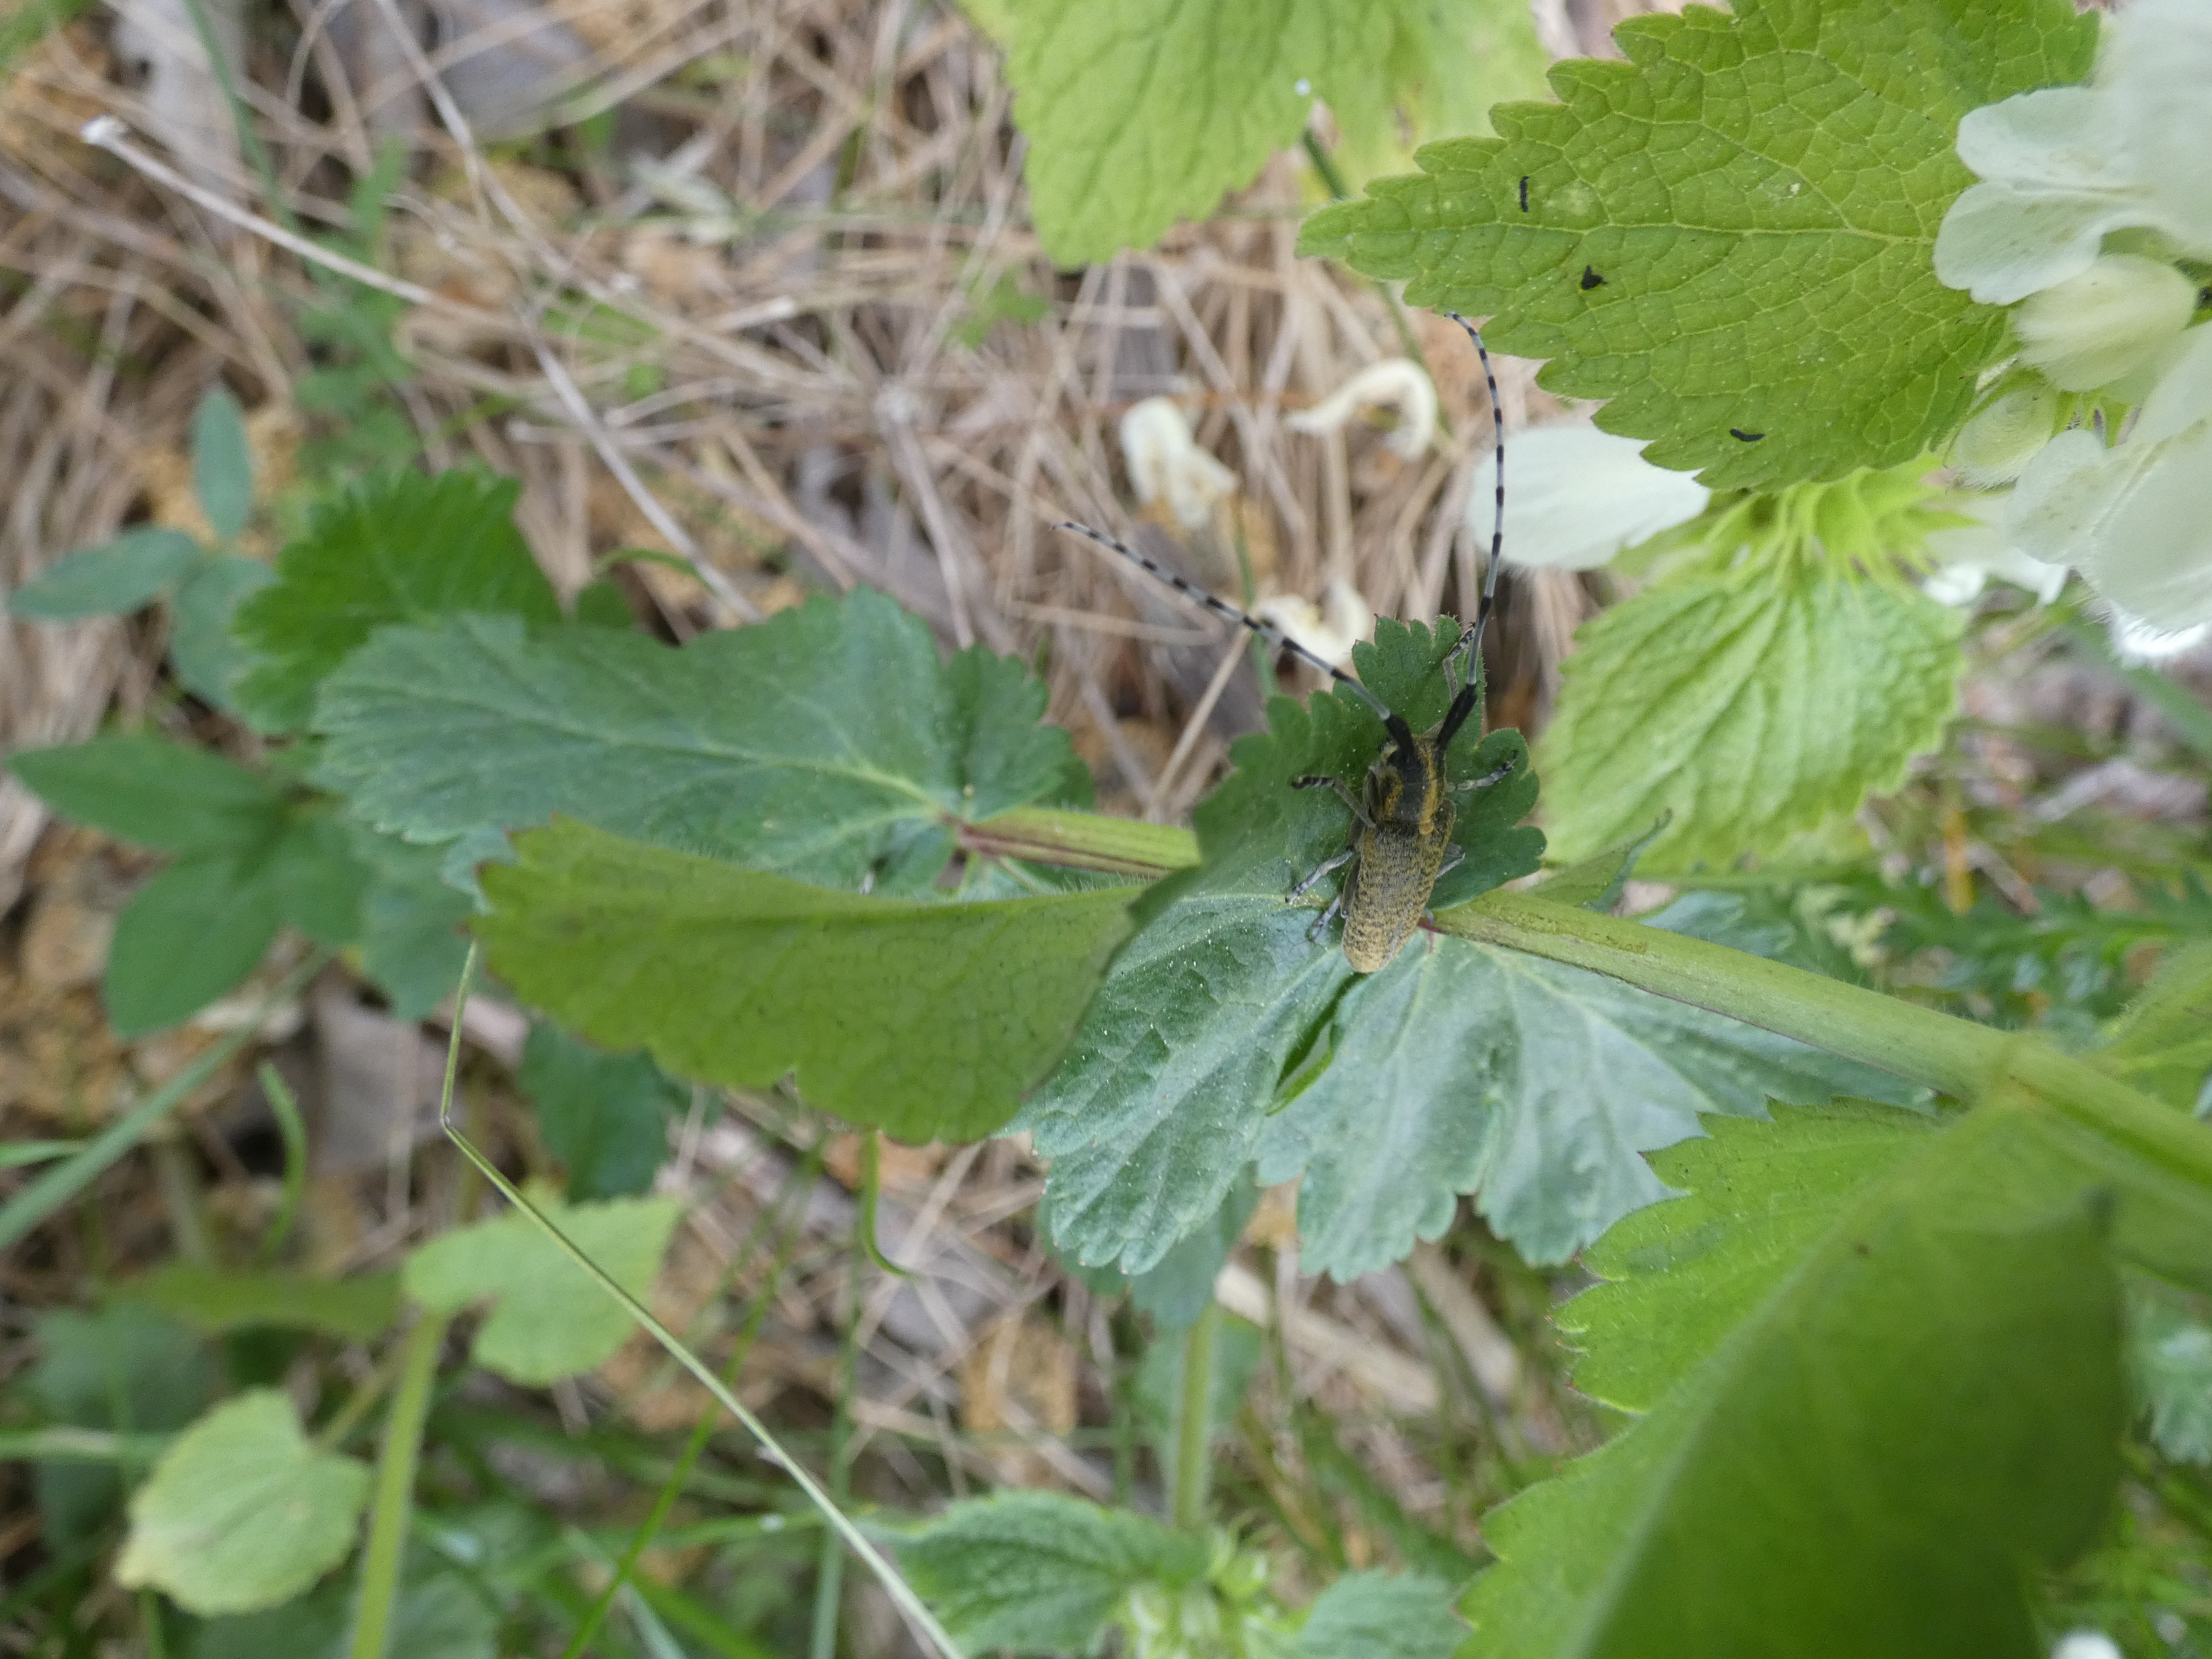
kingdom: Plantae
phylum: Tracheophyta
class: Magnoliopsida
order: Apiales
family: Apiaceae
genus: Pastinaca
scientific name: Pastinaca sativa
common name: Pastinak
